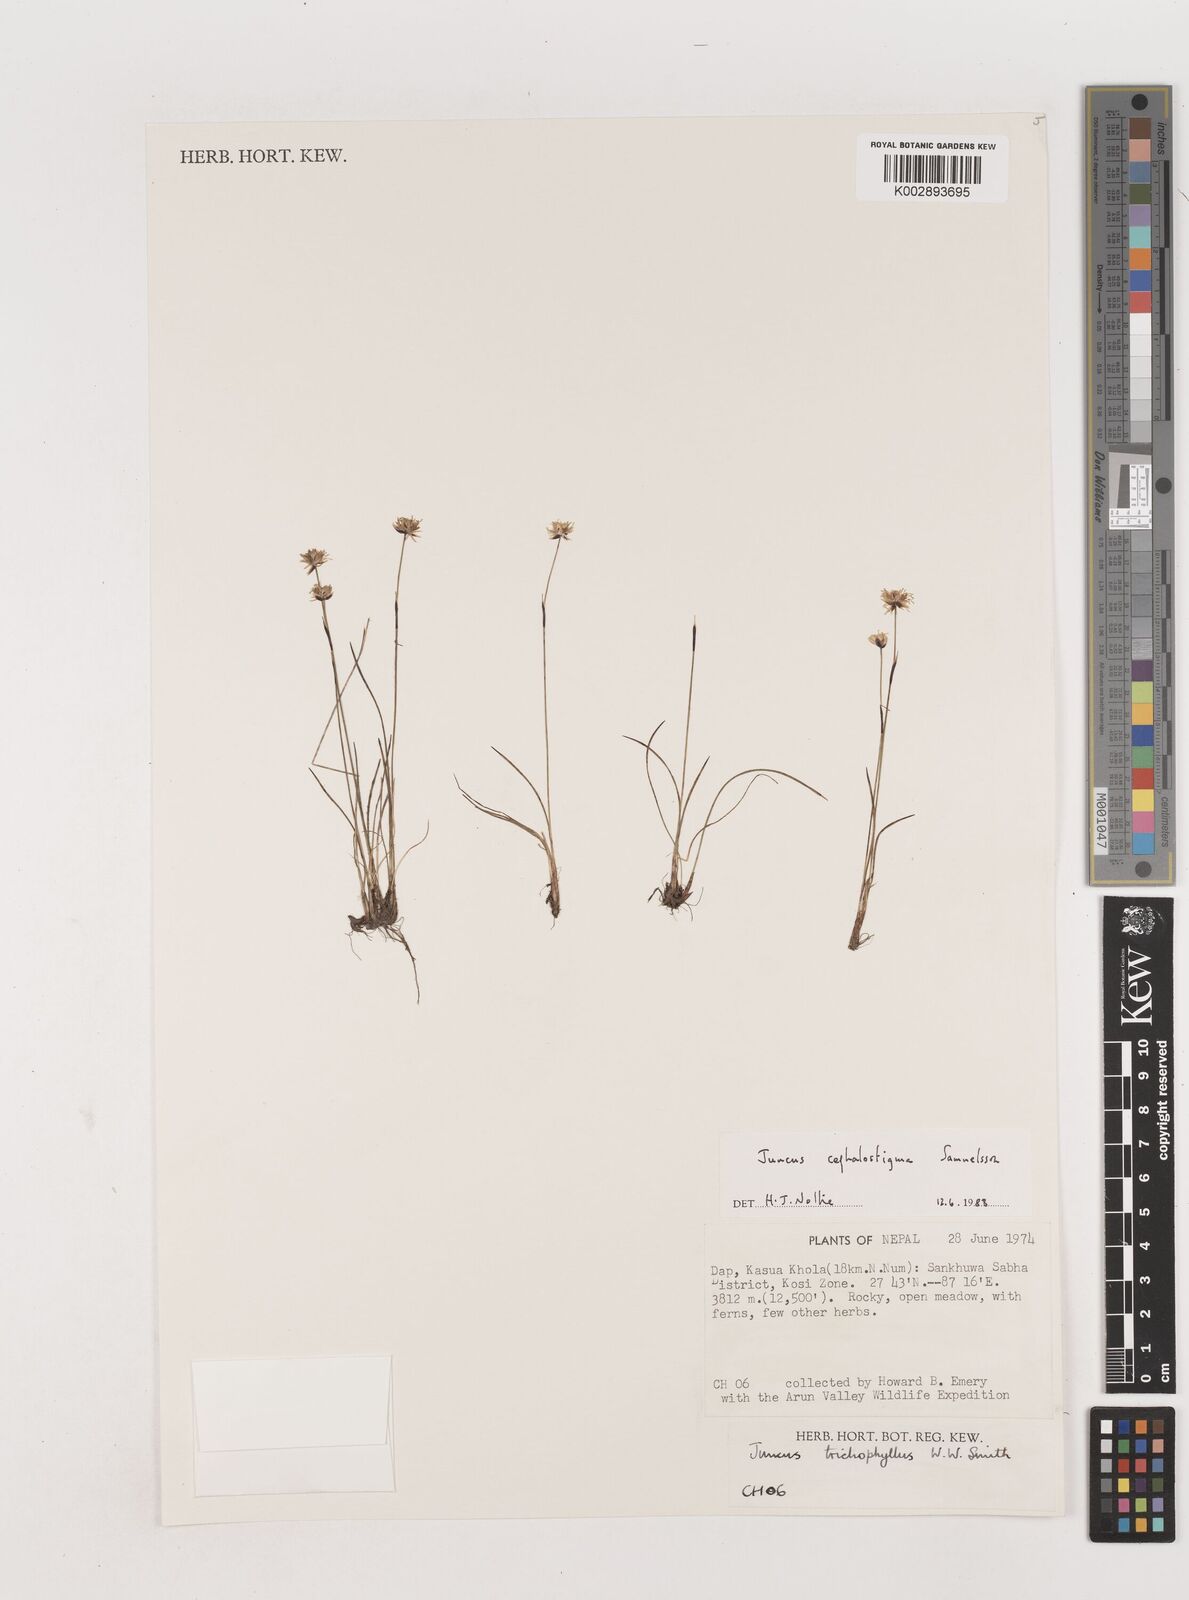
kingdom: Plantae
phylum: Tracheophyta
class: Liliopsida
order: Poales
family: Juncaceae
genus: Juncus
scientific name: Juncus cephalostigma
